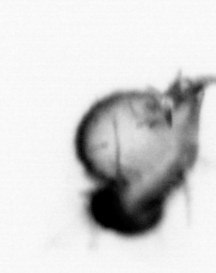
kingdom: Animalia
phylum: Annelida
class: Polychaeta
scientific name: Polychaeta
